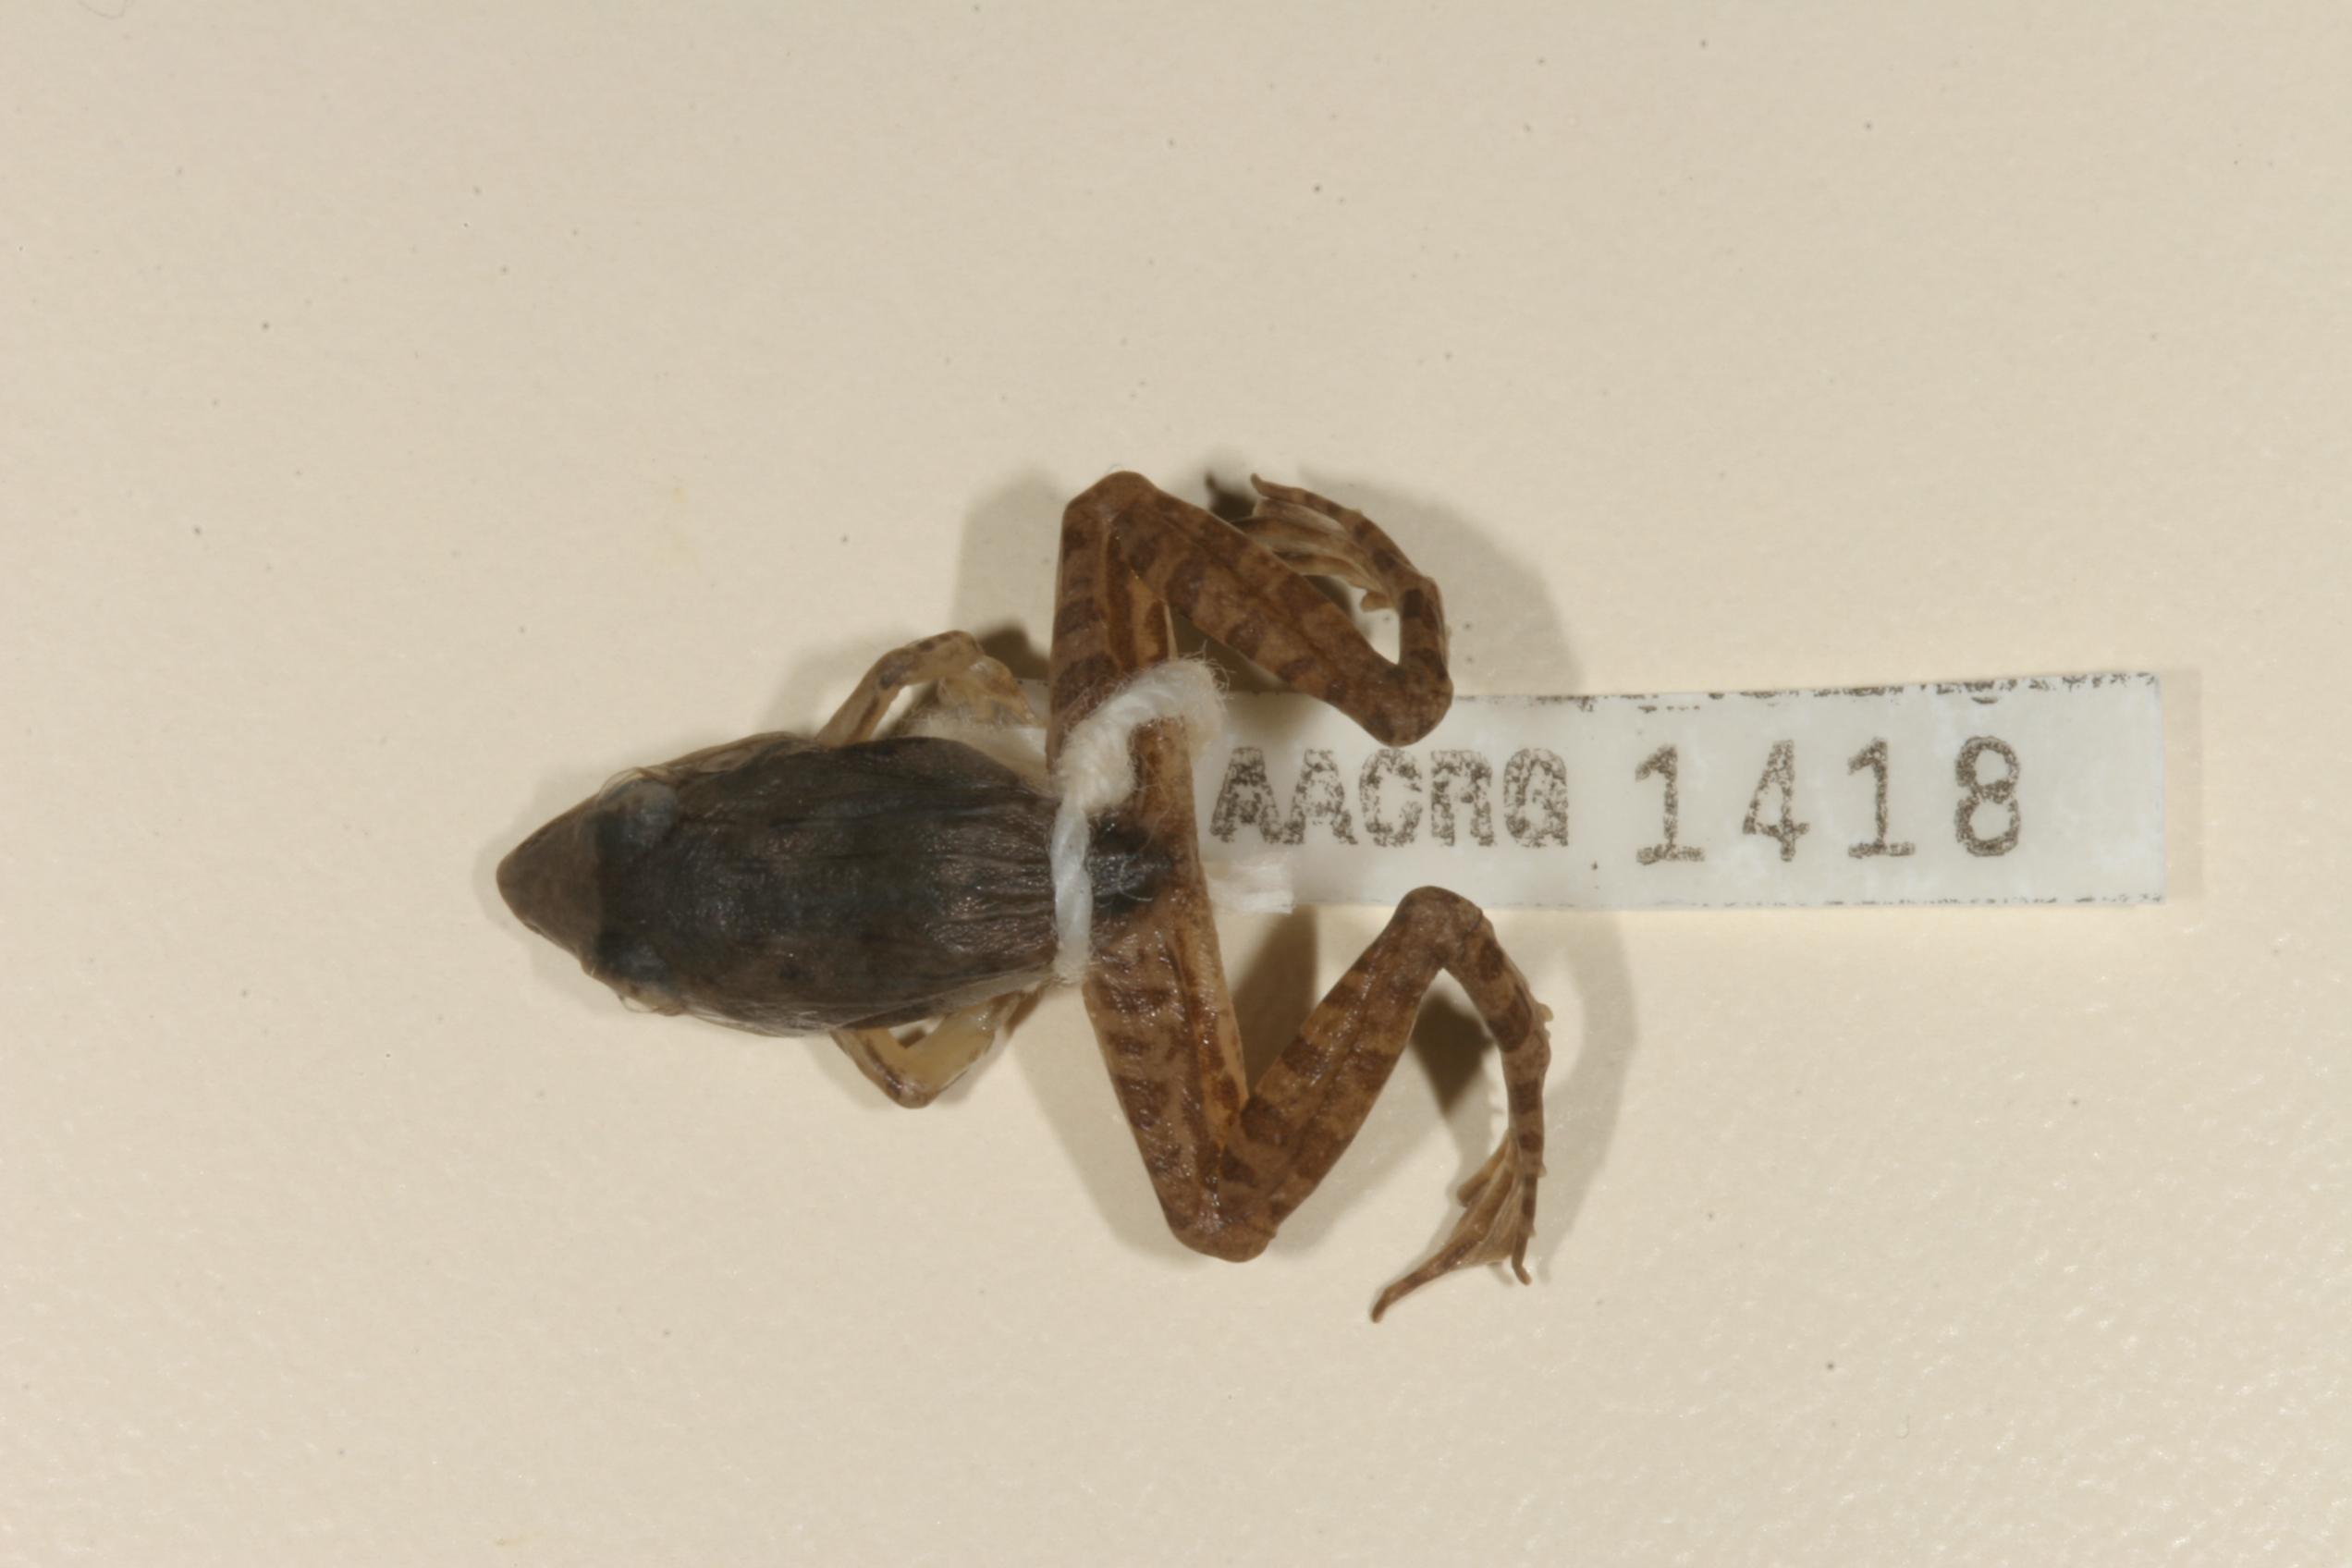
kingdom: Animalia
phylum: Chordata
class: Amphibia
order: Anura
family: Ptychadenidae
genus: Ptychadena
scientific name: Ptychadena anchietae
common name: Anchieta's ridged frog
